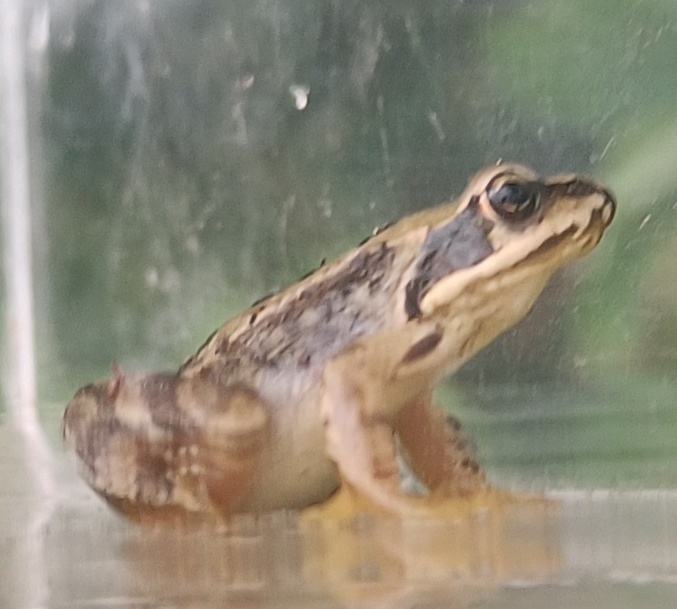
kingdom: Animalia
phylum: Chordata
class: Amphibia
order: Anura
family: Ranidae
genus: Rana
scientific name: Rana temporaria
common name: Butsnudet frø
